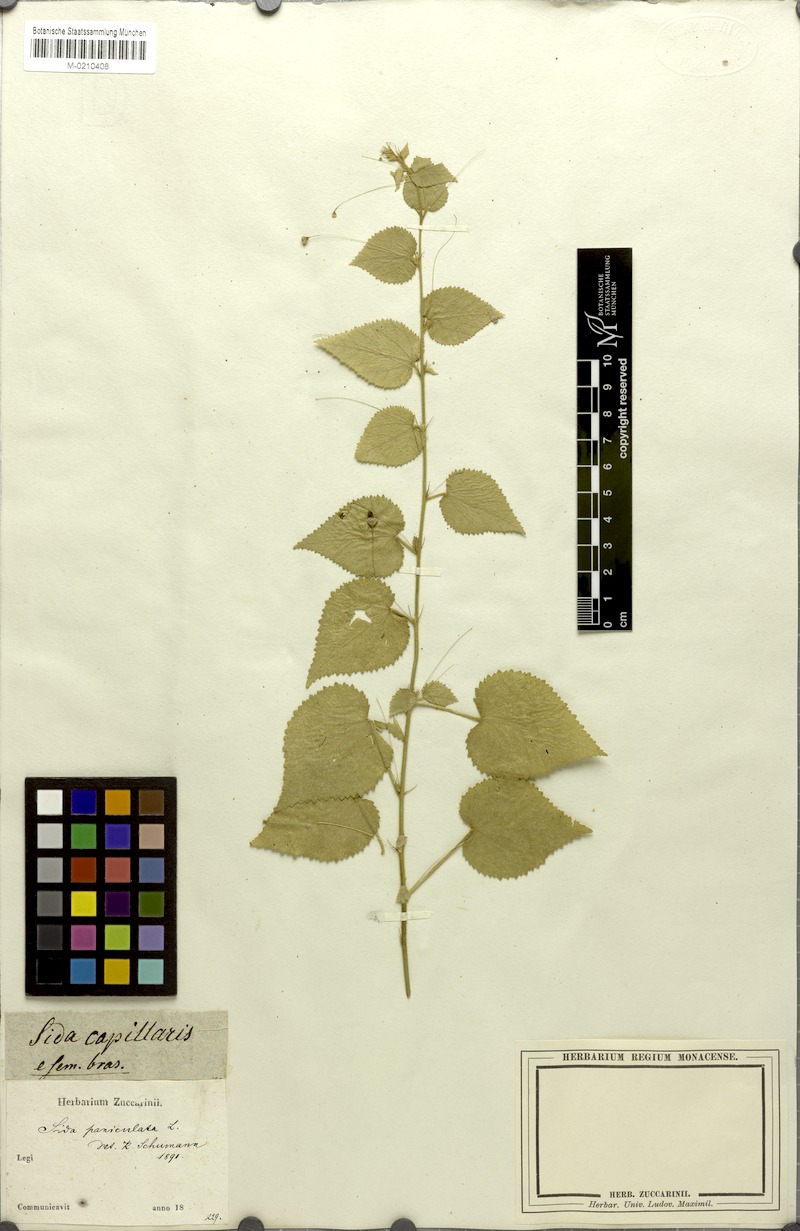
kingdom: Plantae
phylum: Tracheophyta
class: Magnoliopsida
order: Malvales
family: Malvaceae
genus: Sidastrum
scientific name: Sidastrum paniculatum
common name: Panicled sandmallow
